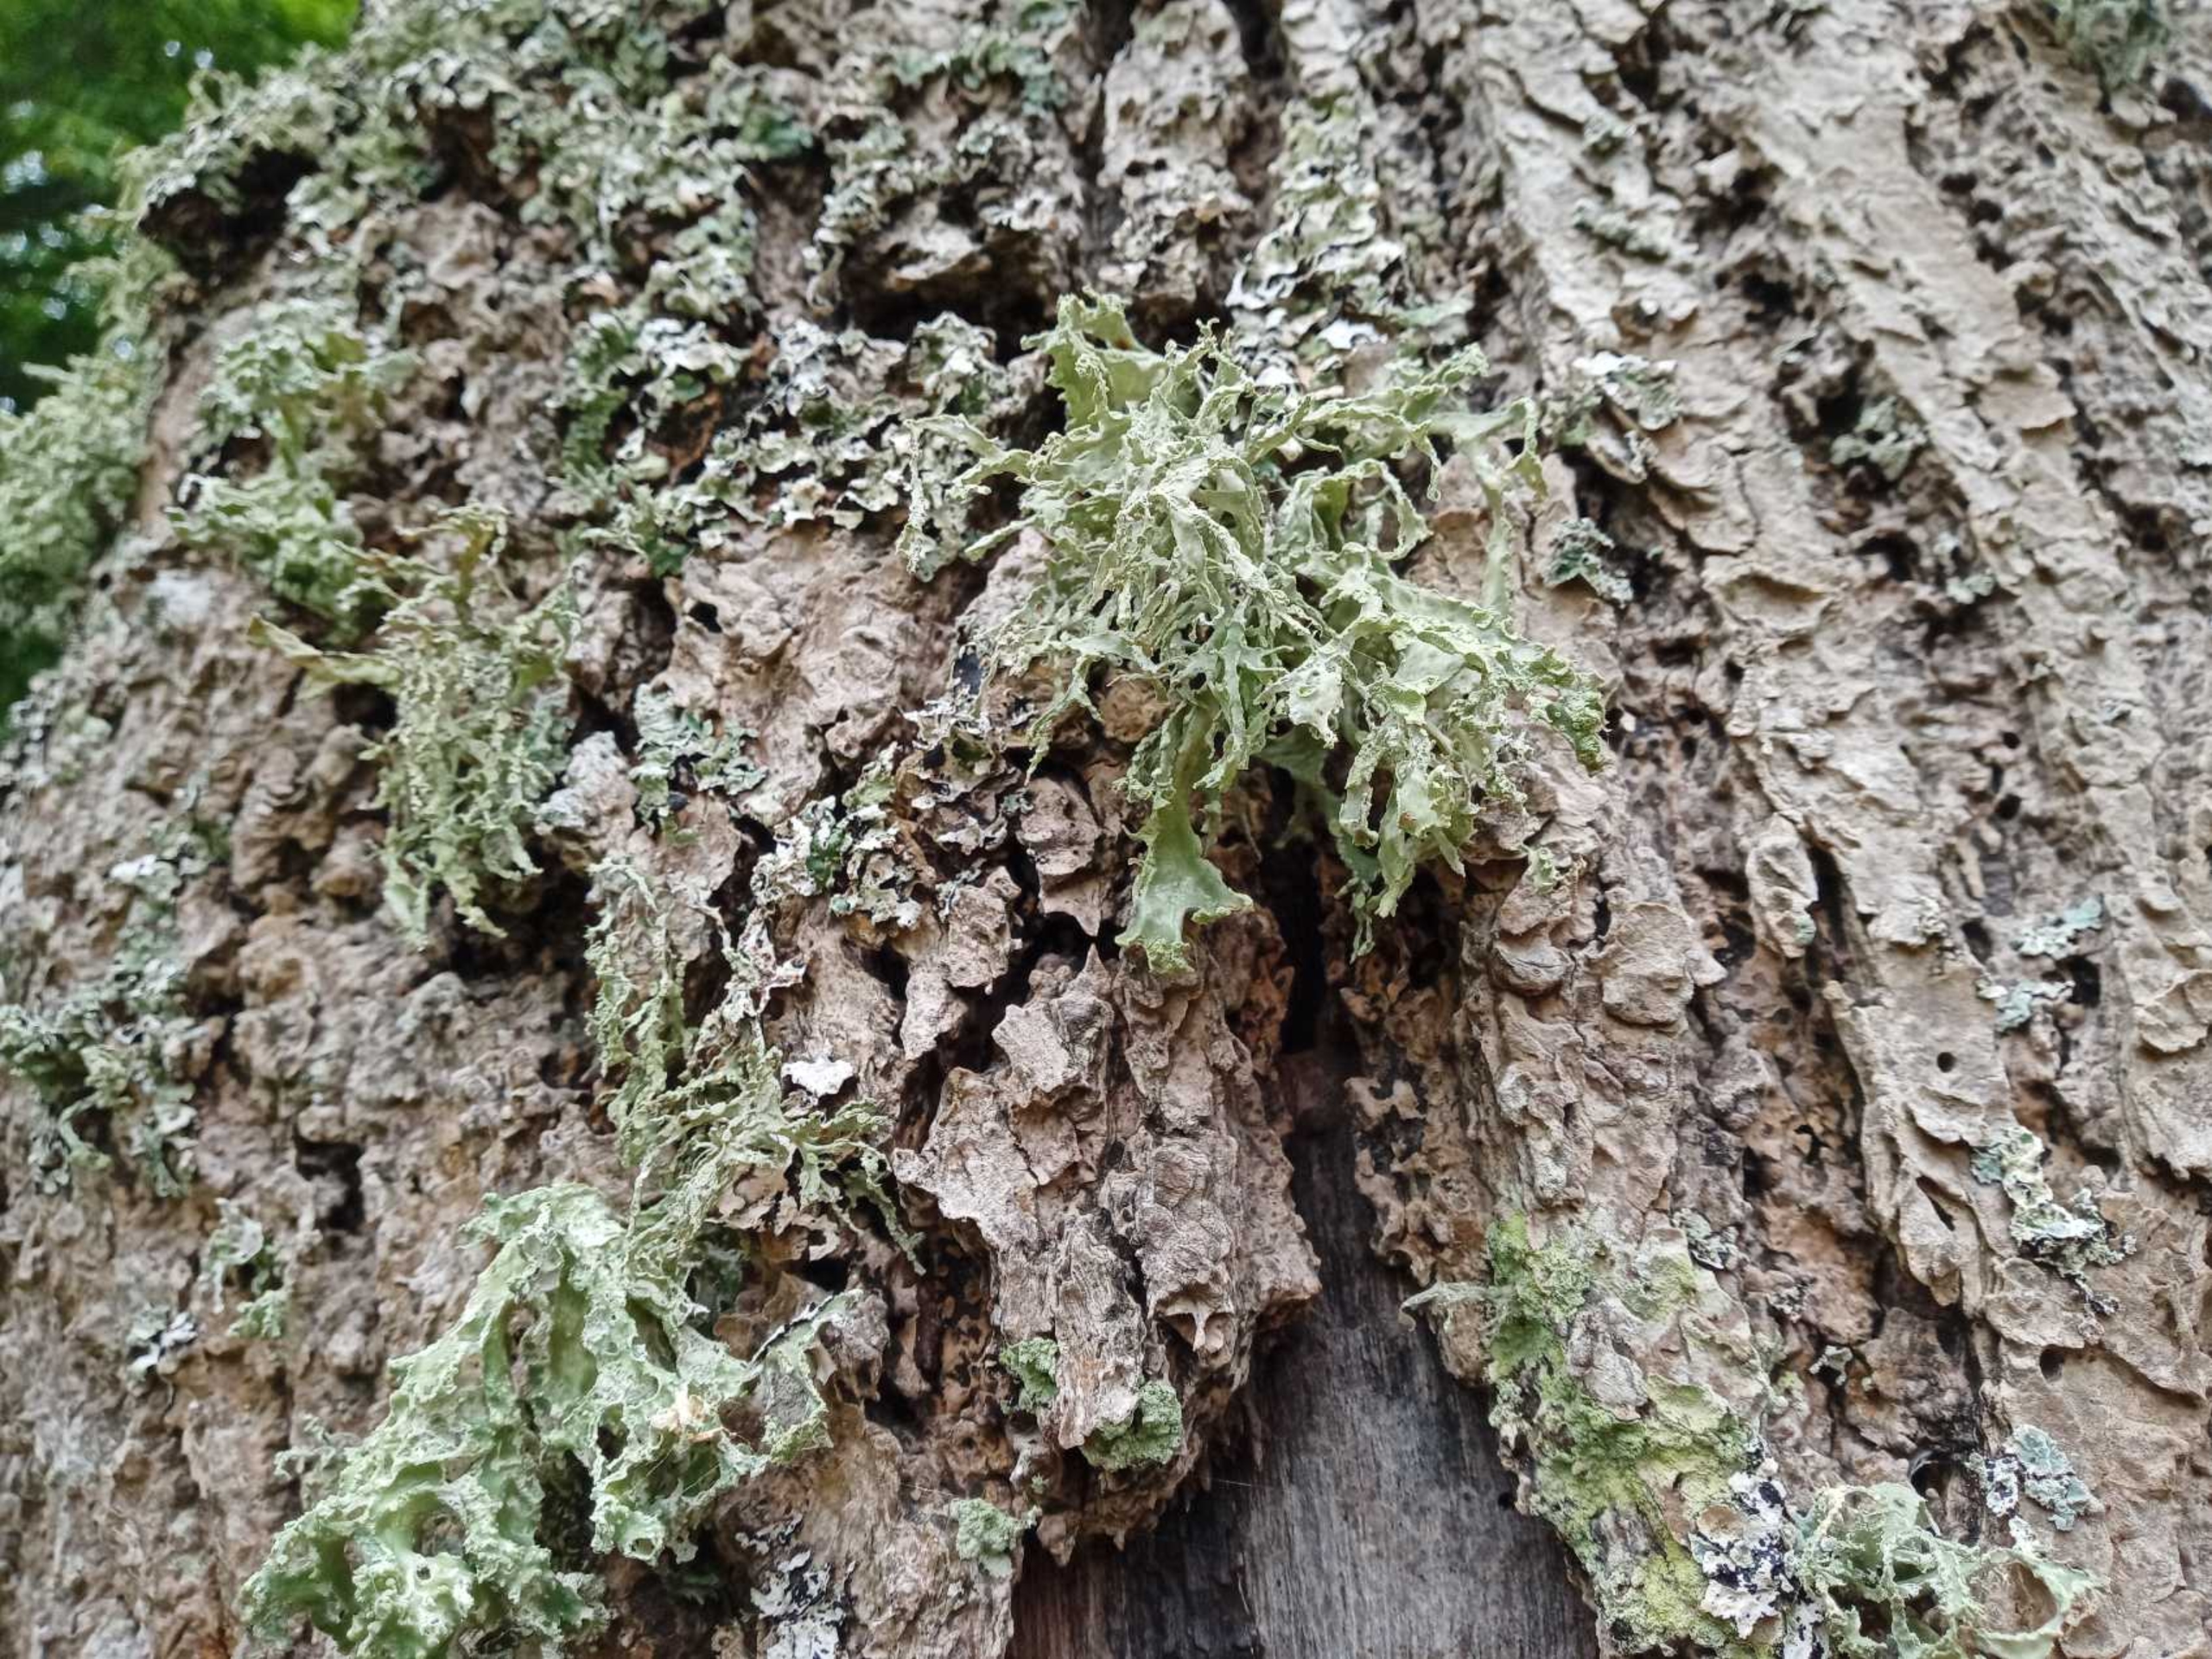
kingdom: Fungi
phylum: Ascomycota
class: Lecanoromycetes
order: Lecanorales
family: Ramalinaceae
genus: Ramalina
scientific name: Ramalina fraxinea
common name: Stor grenlav
